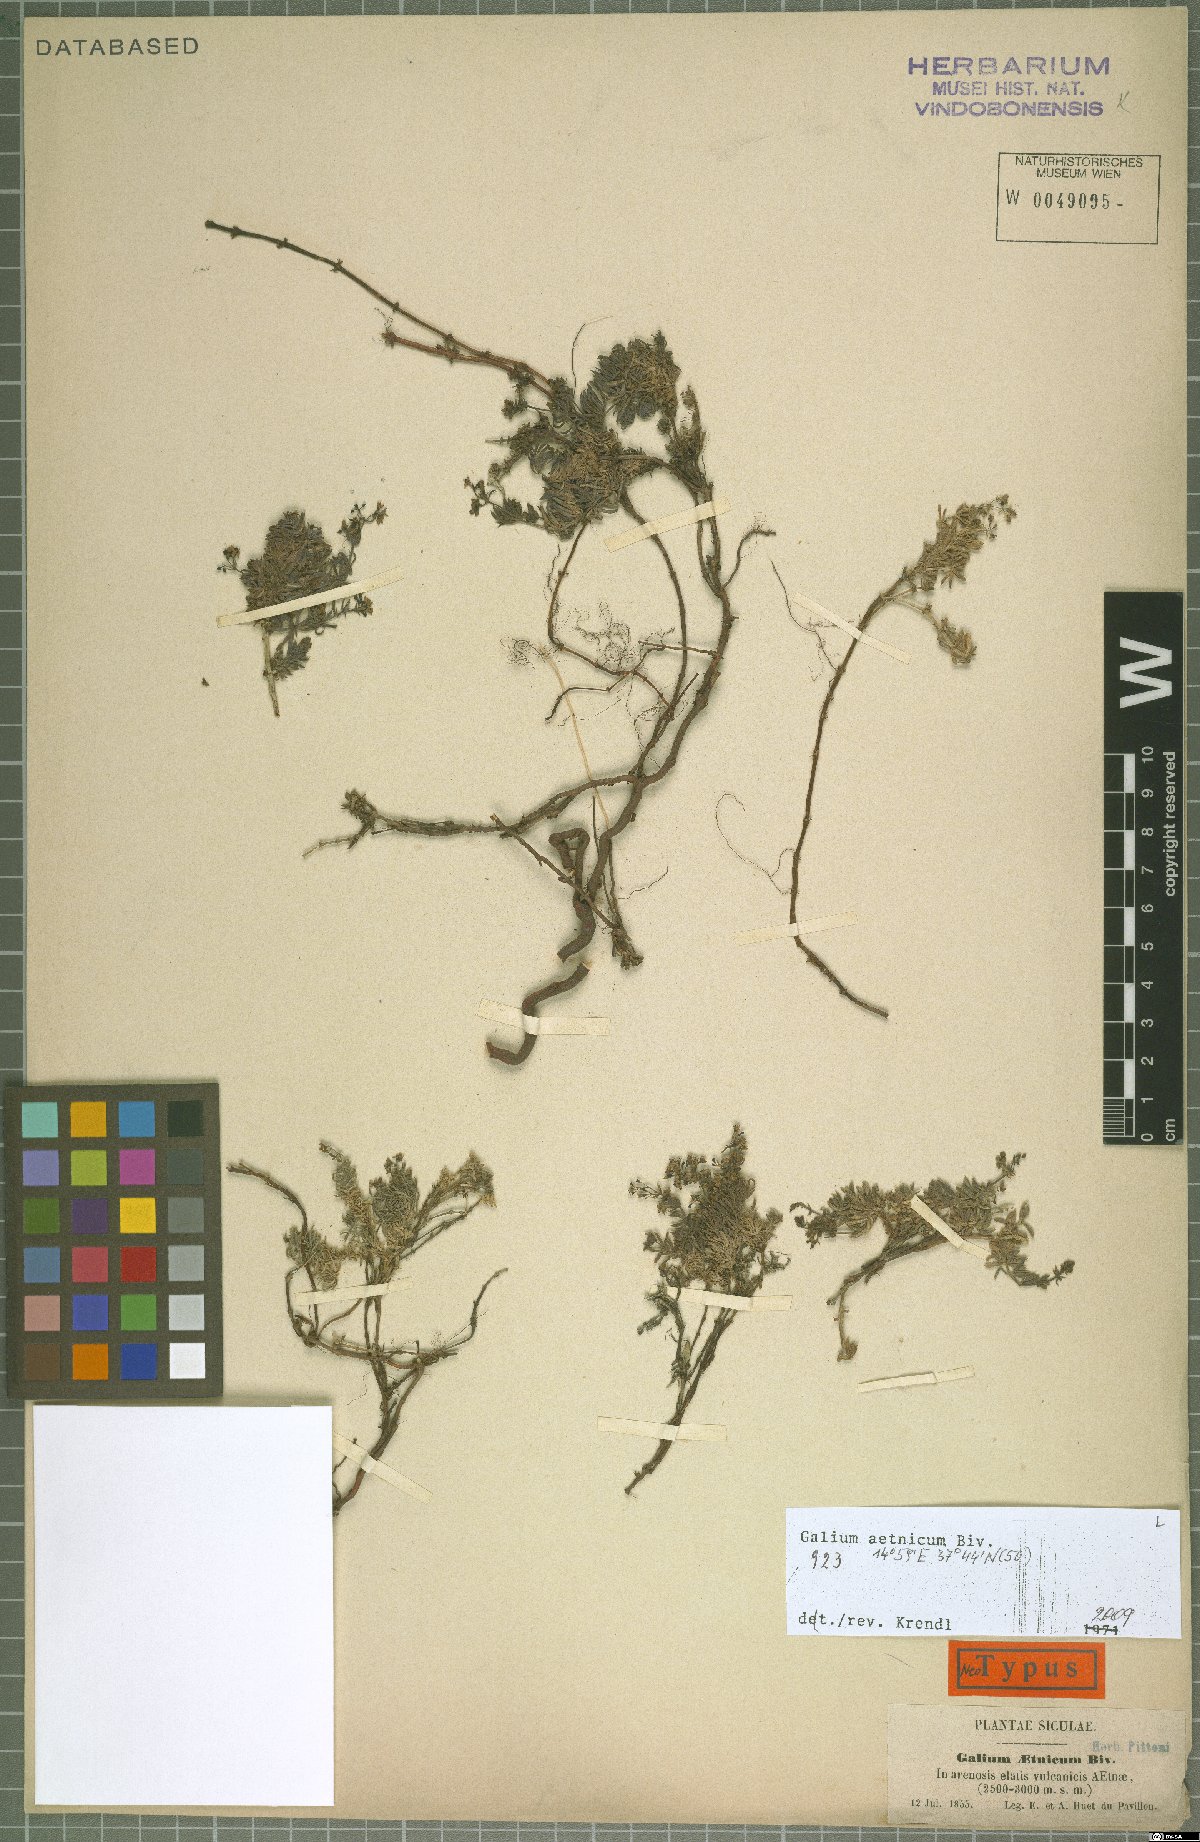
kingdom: Plantae
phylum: Tracheophyta
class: Magnoliopsida
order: Gentianales
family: Rubiaceae
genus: Galium
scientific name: Galium aetnicum
